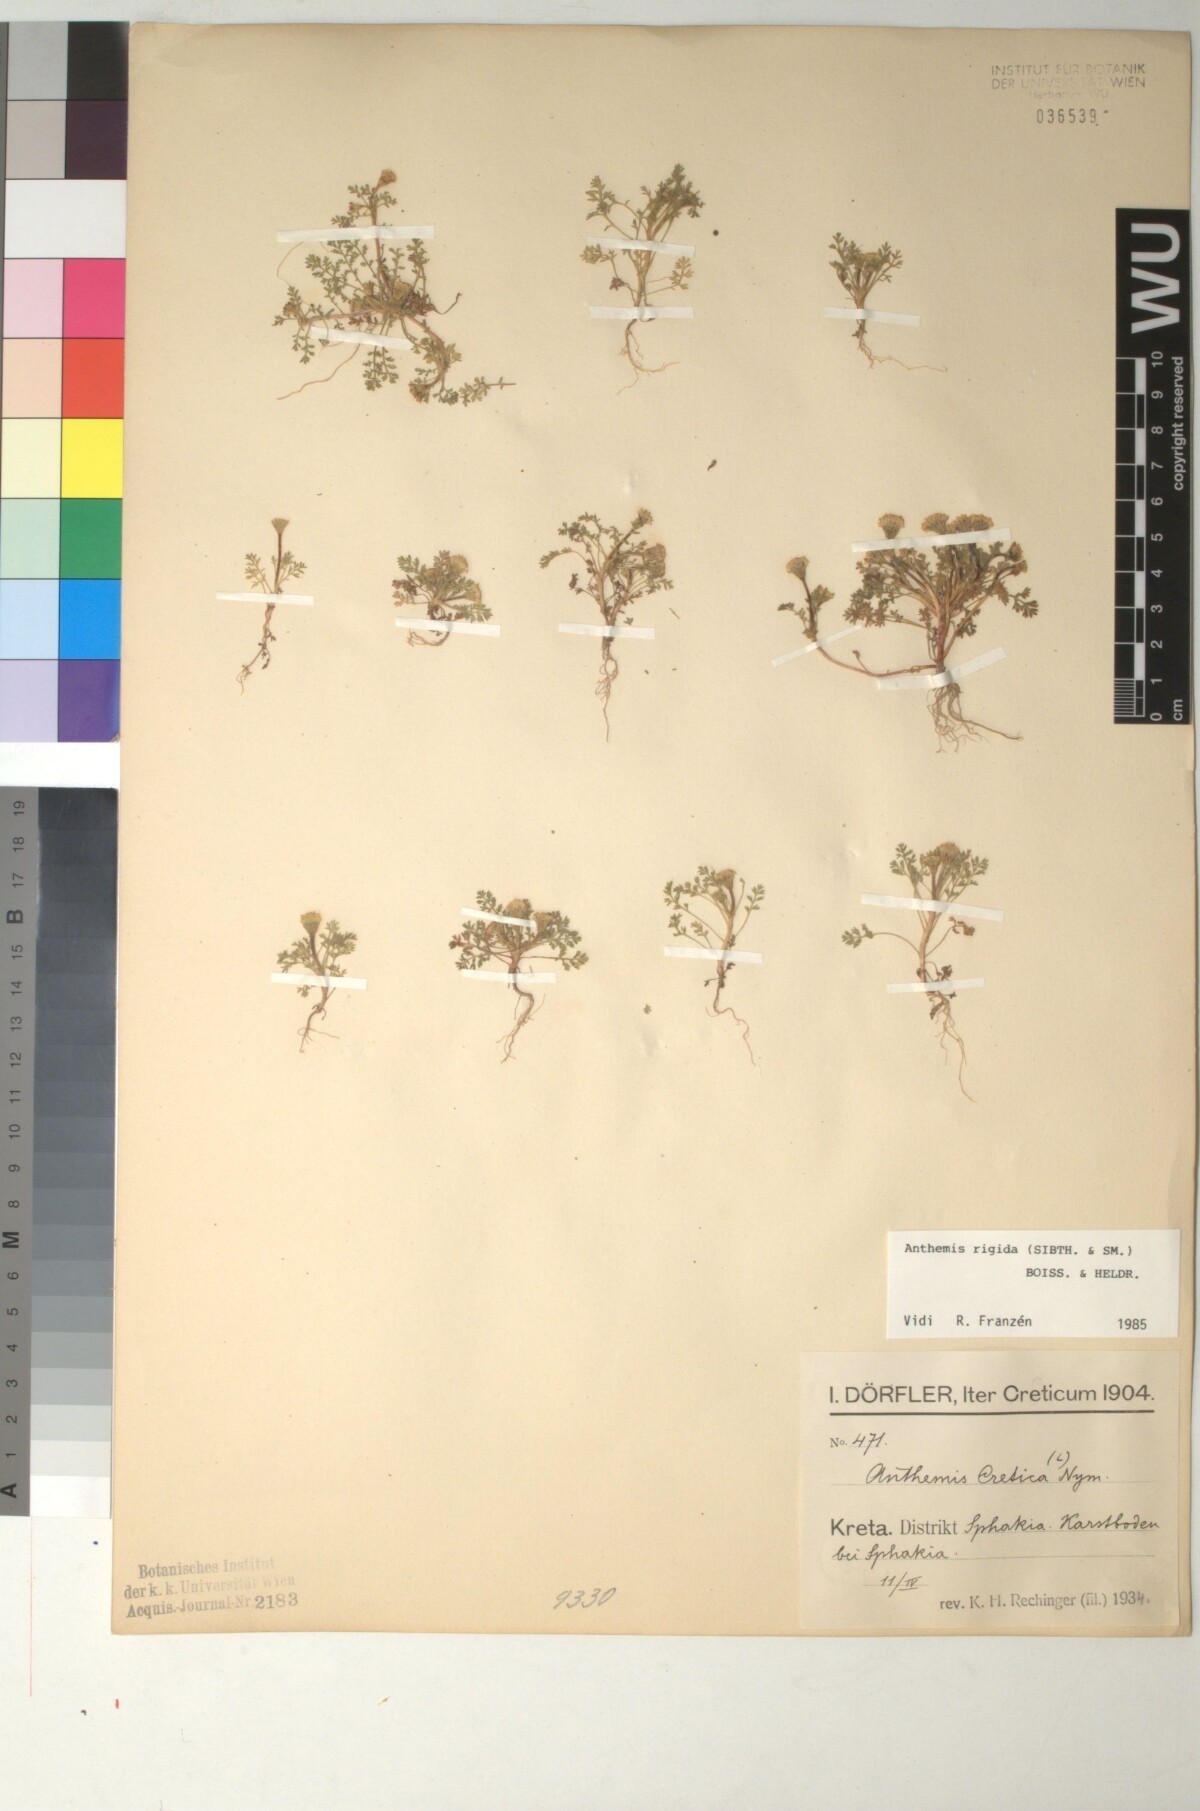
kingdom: Plantae
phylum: Tracheophyta
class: Magnoliopsida
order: Asterales
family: Asteraceae
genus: Anthemis
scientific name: Anthemis rigida
